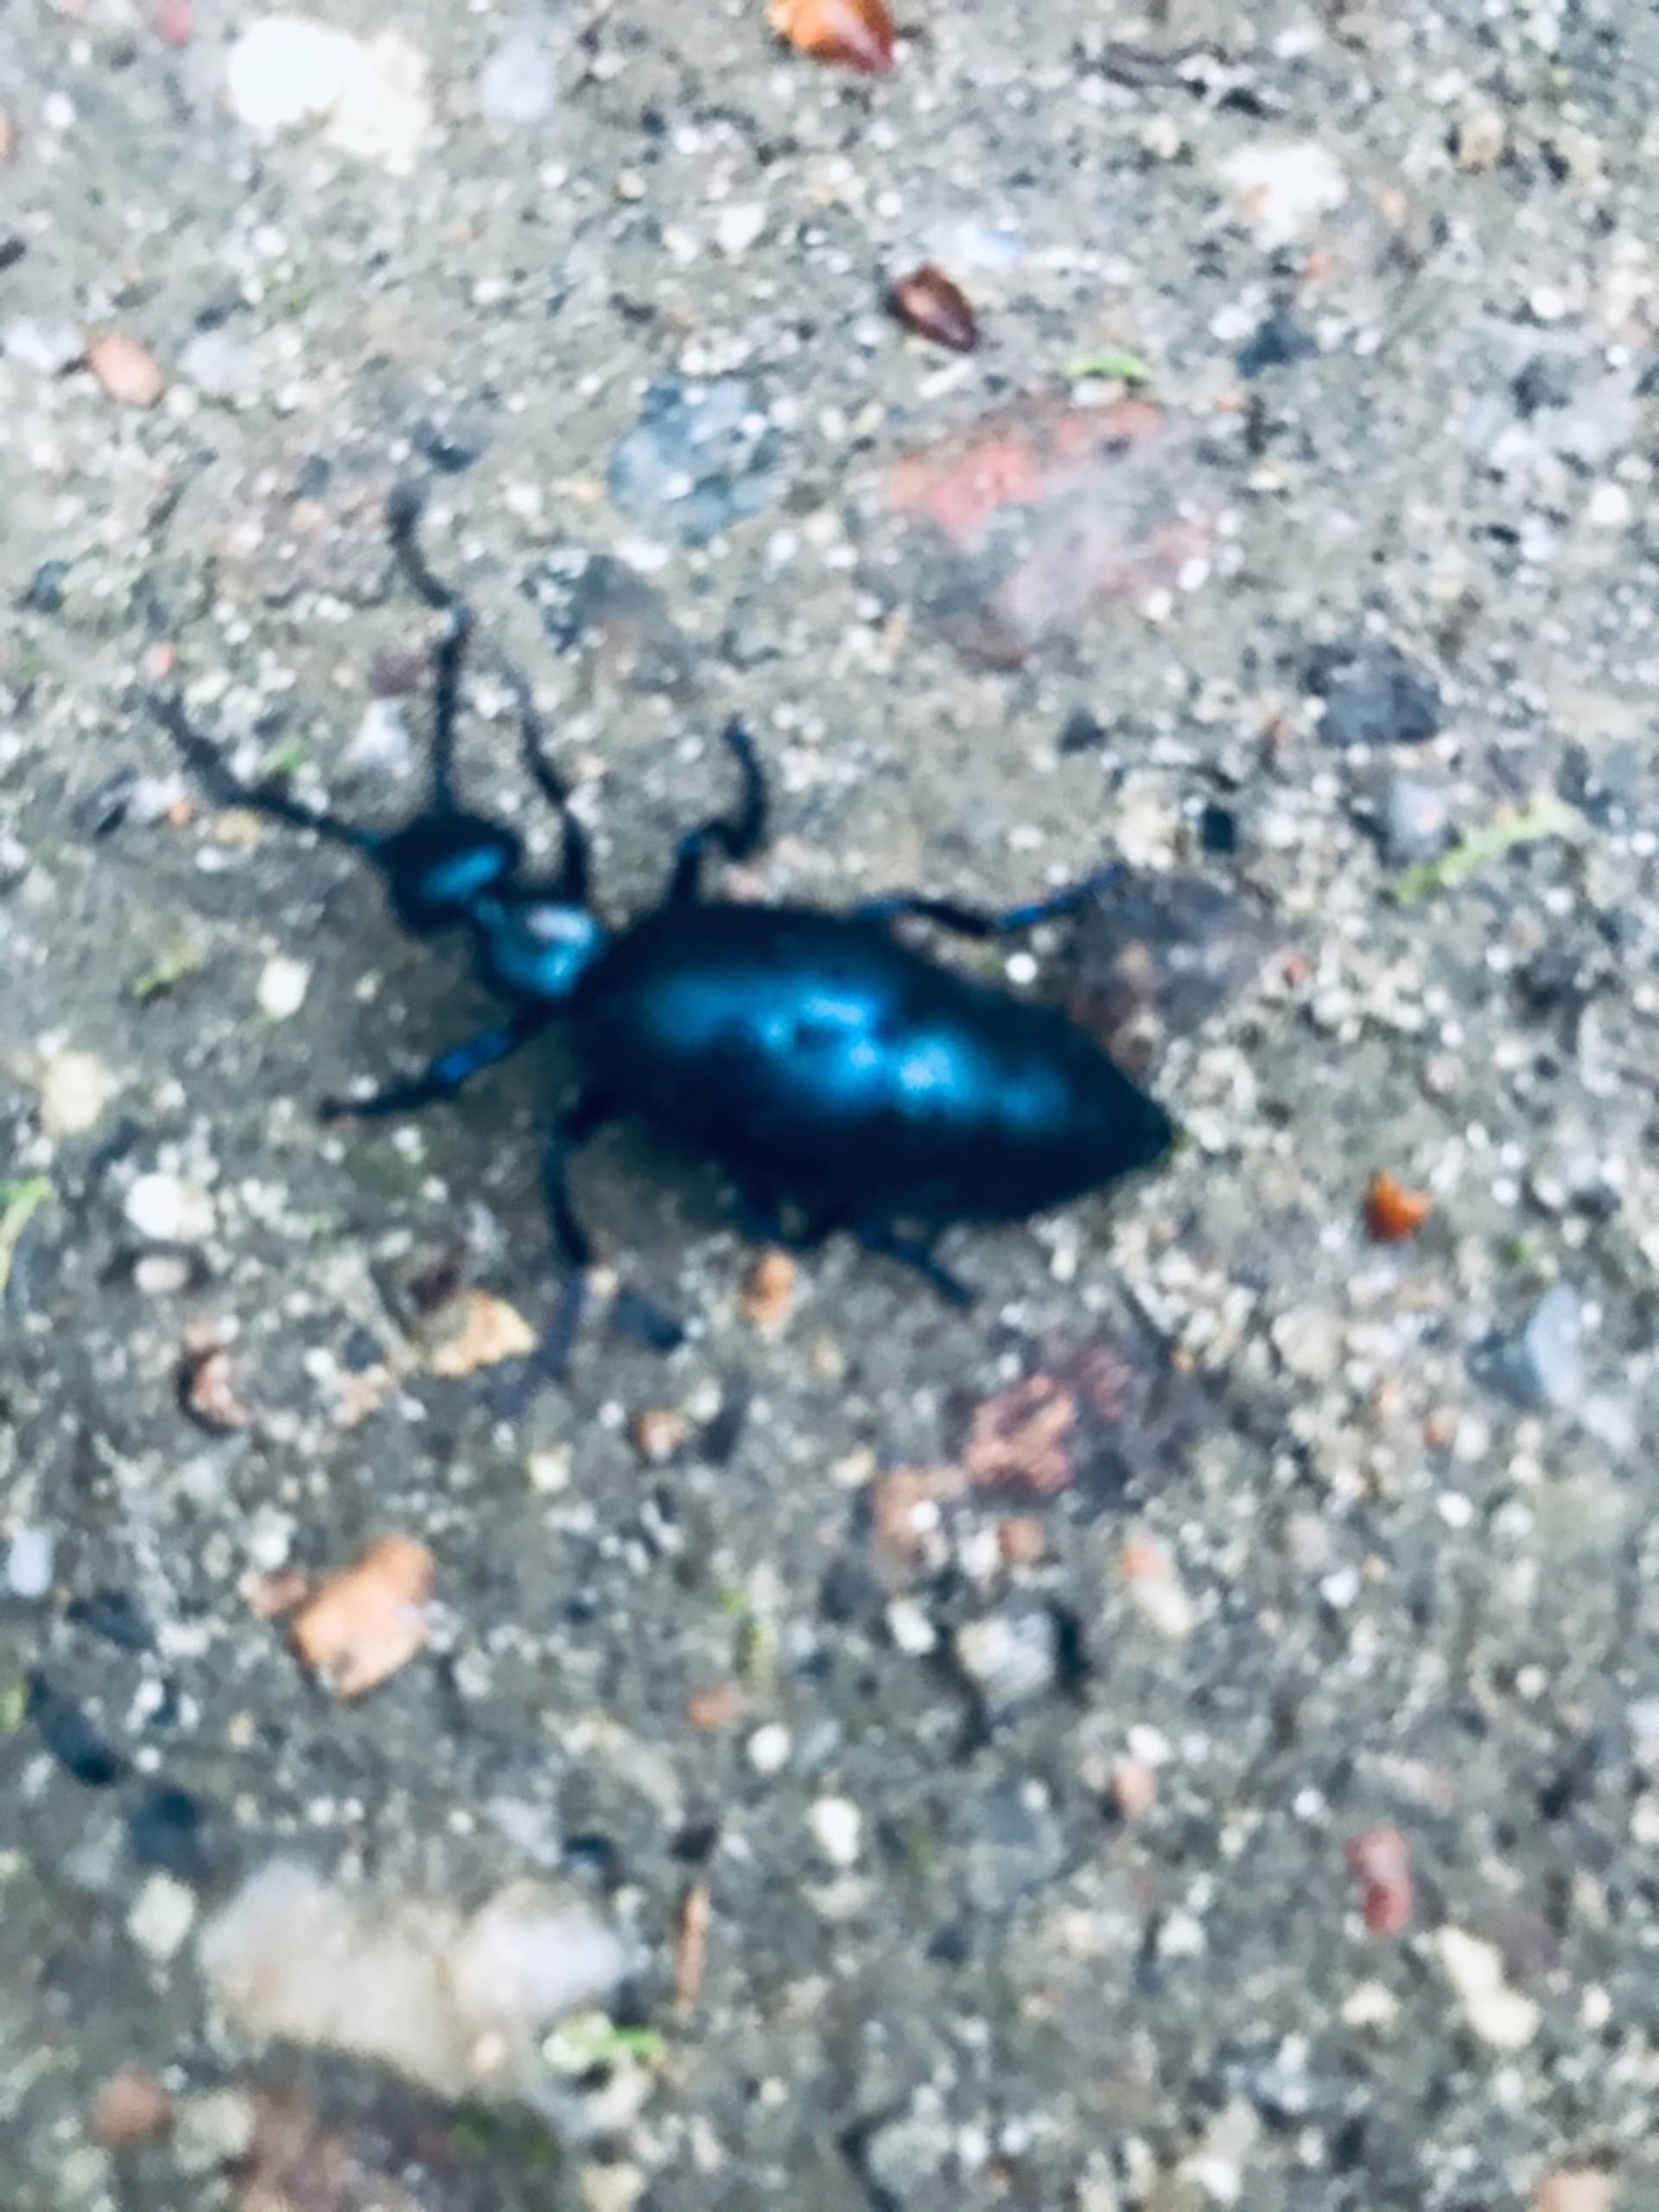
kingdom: Animalia
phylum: Arthropoda
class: Insecta
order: Coleoptera
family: Meloidae
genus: Meloe
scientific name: Meloe violaceus
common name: Blå oliebille
